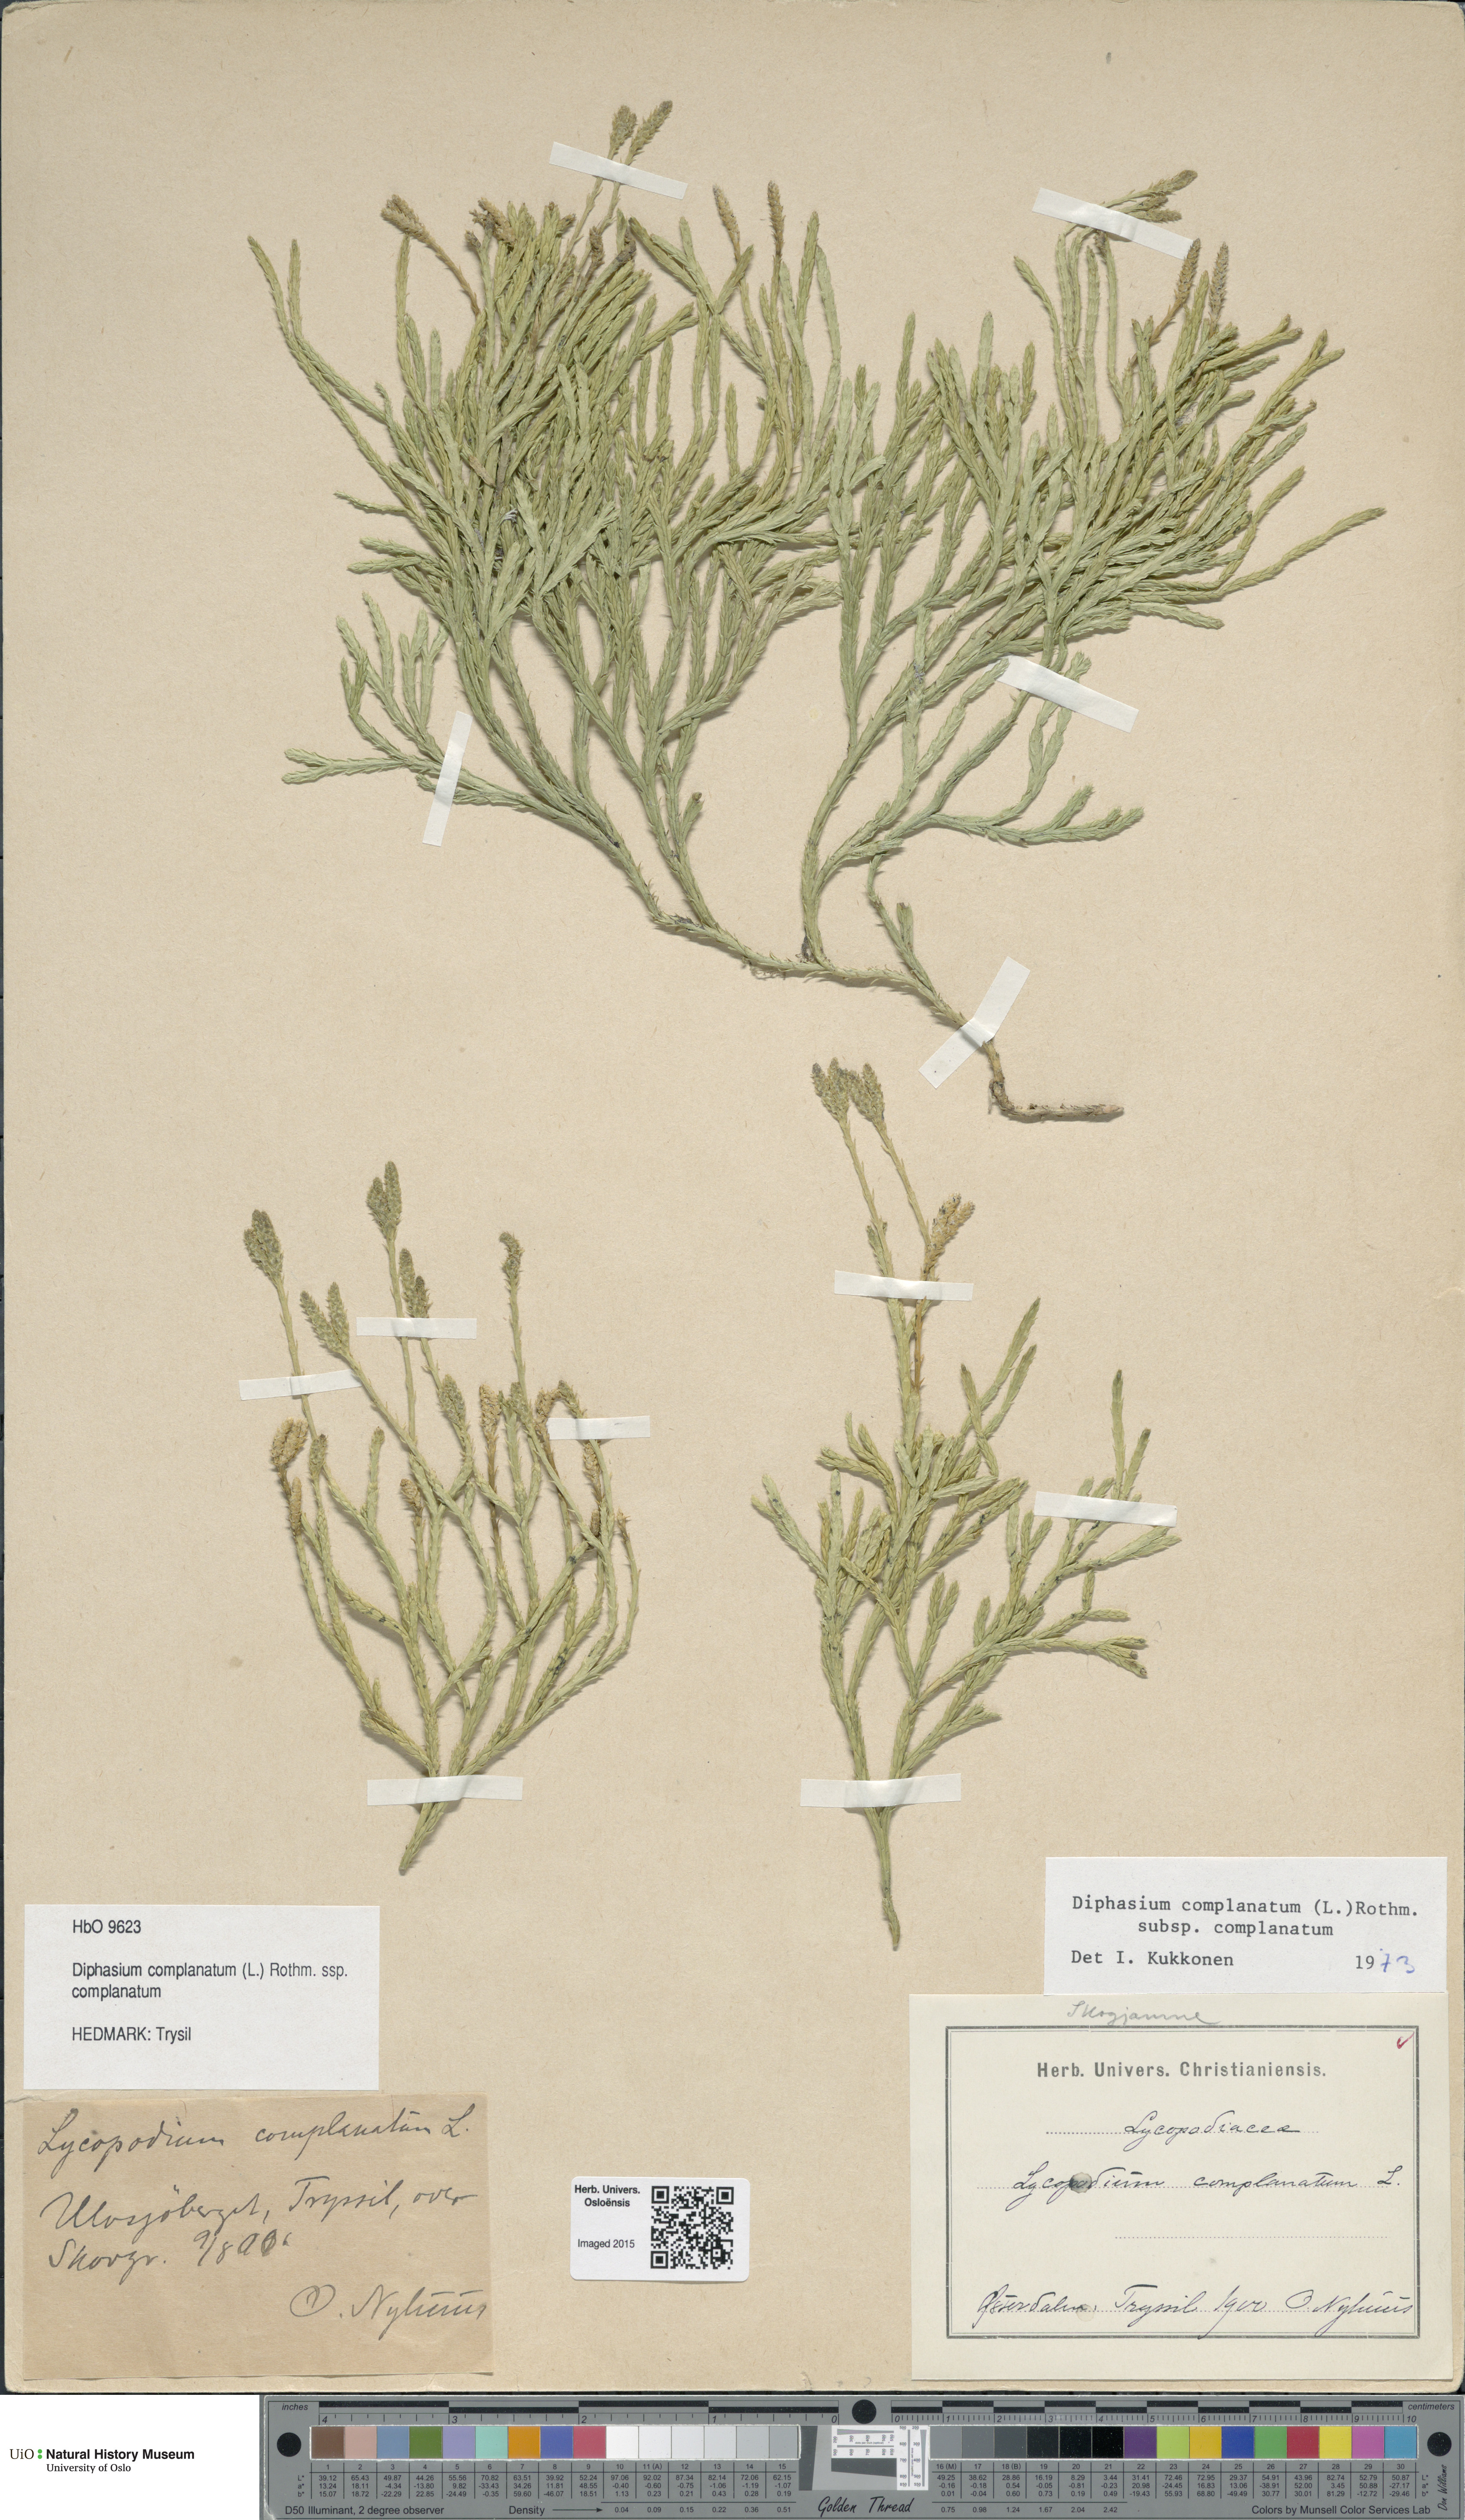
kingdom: Plantae
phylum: Tracheophyta
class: Lycopodiopsida
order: Lycopodiales
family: Lycopodiaceae
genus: Diphasiastrum
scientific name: Diphasiastrum complanatum
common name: Northern running-pine
